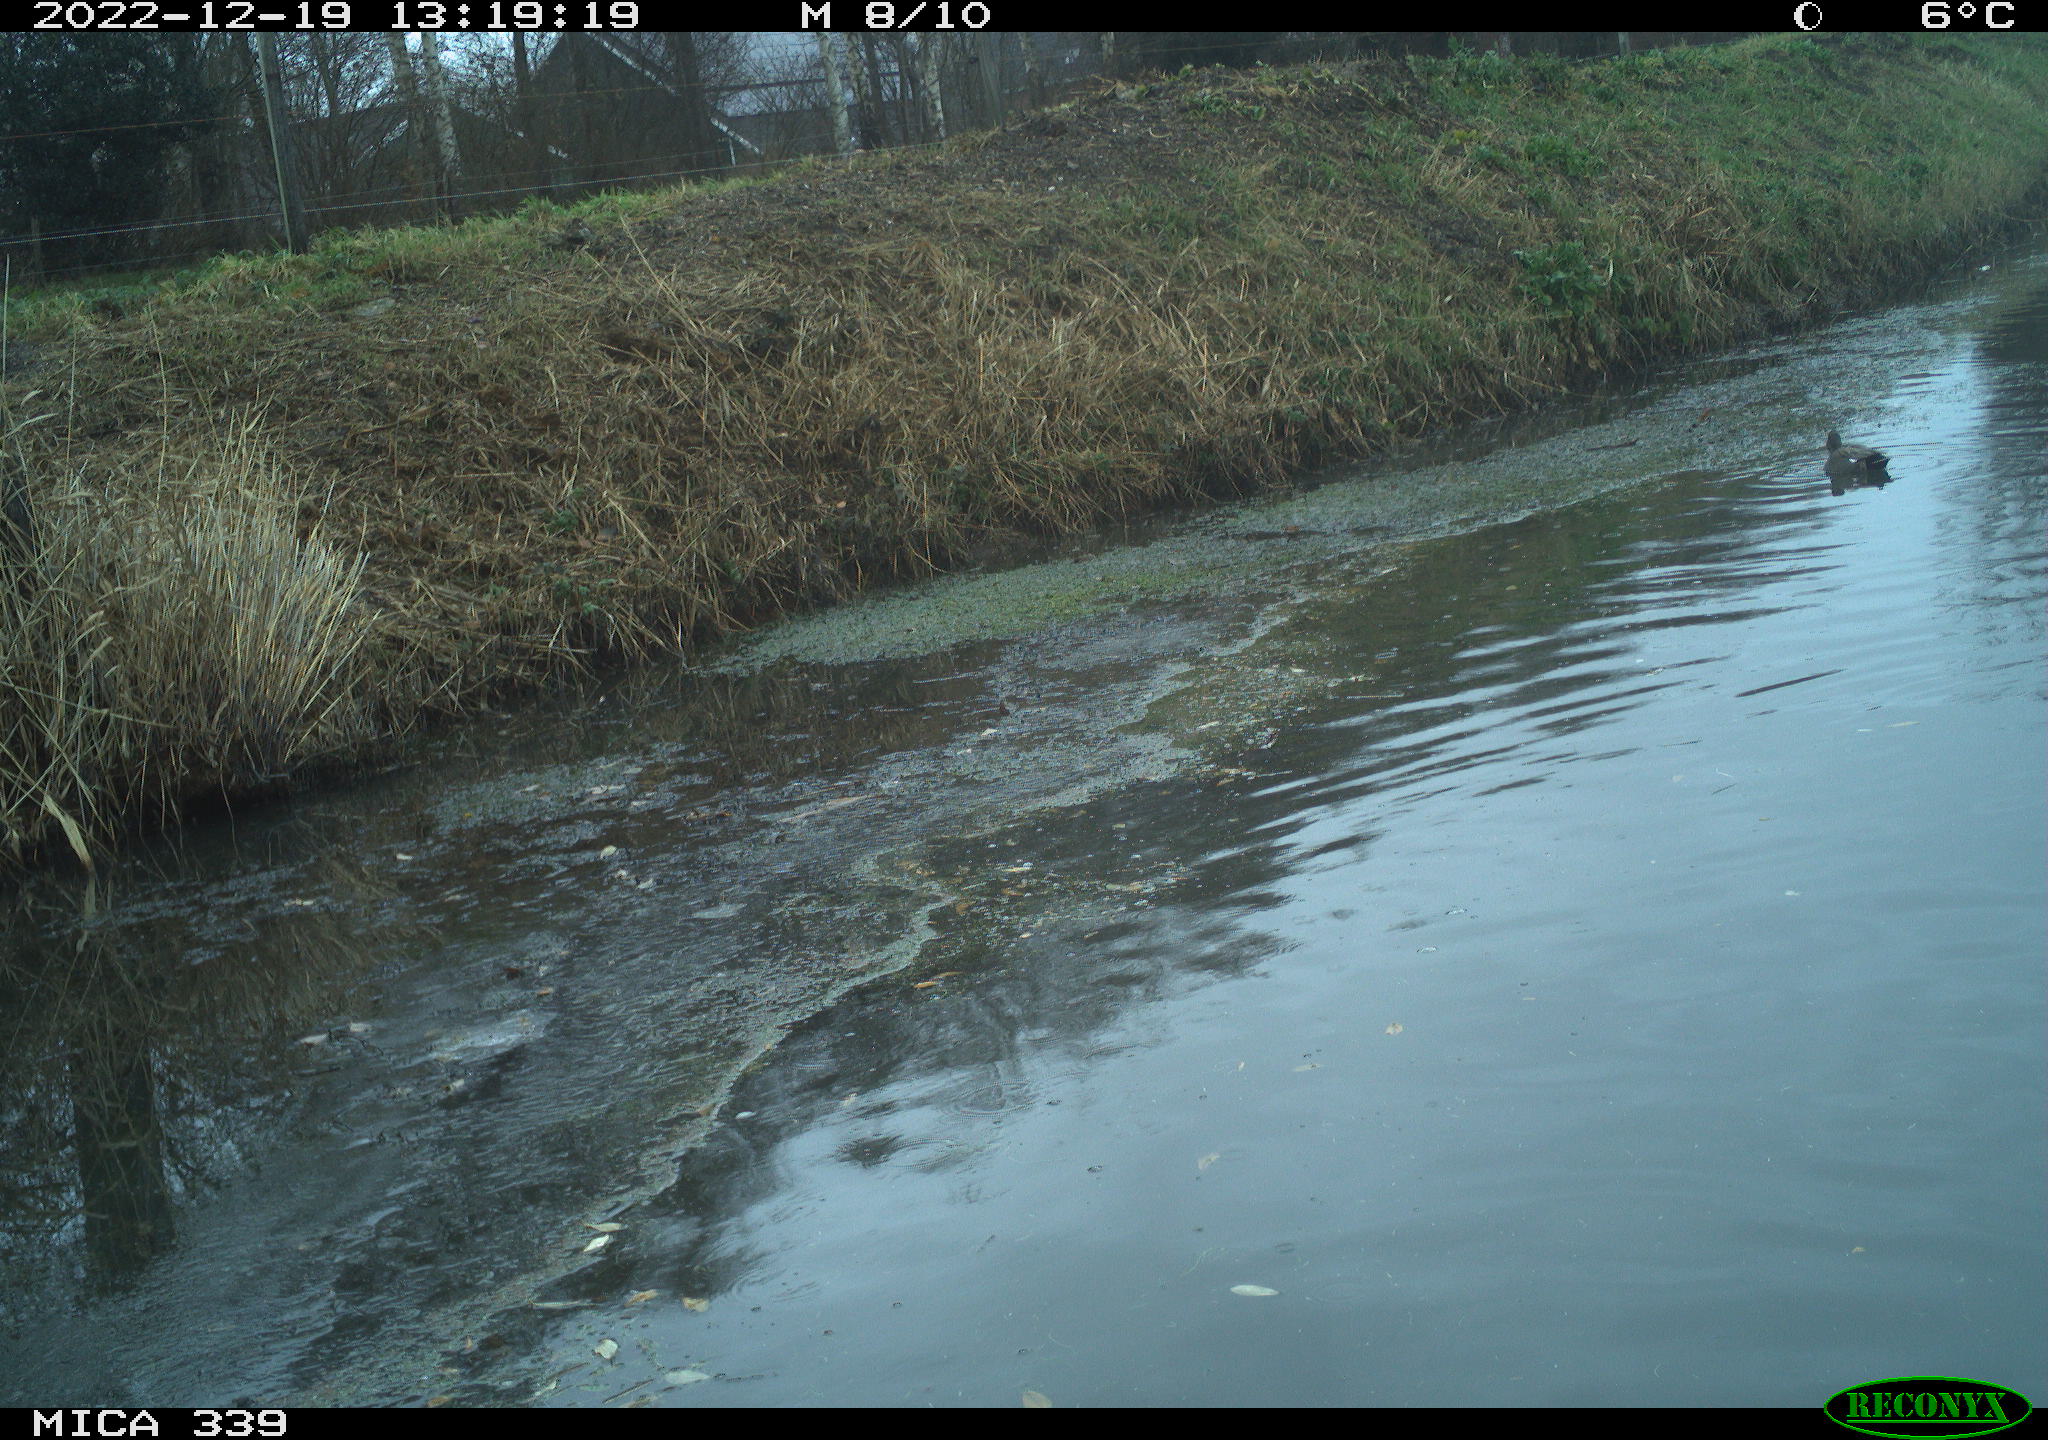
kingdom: Animalia
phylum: Chordata
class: Aves
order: Anseriformes
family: Anatidae
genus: Anas
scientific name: Anas
